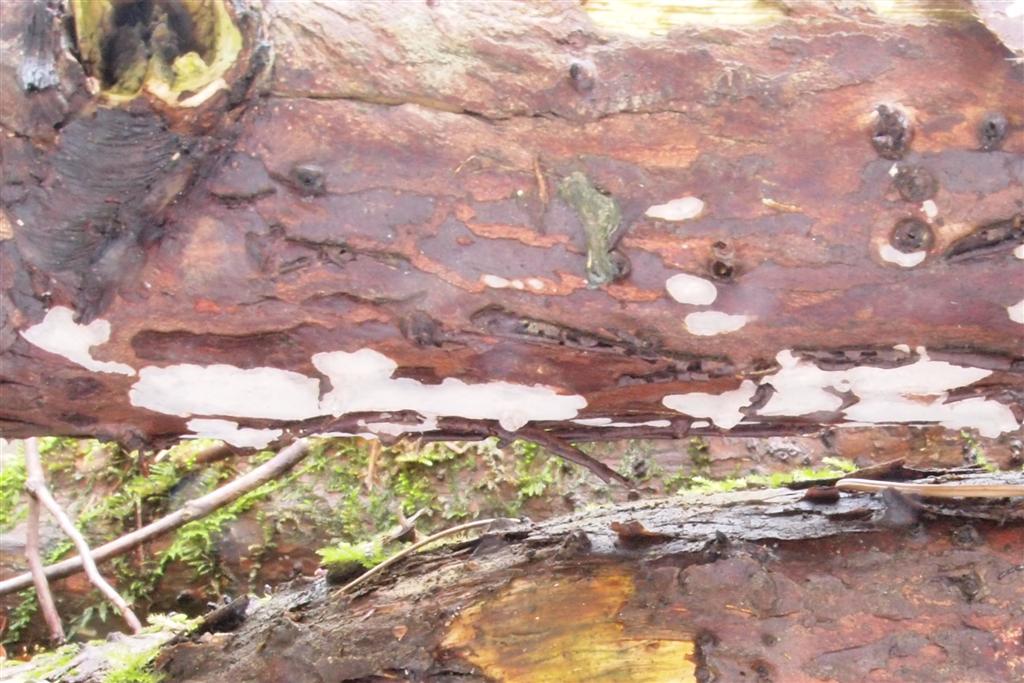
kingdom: Fungi
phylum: Basidiomycota
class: Agaricomycetes
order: Russulales
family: Echinodontiaceae
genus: Amylostereum
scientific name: Amylostereum laevigatum
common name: ene-lædersvamp
